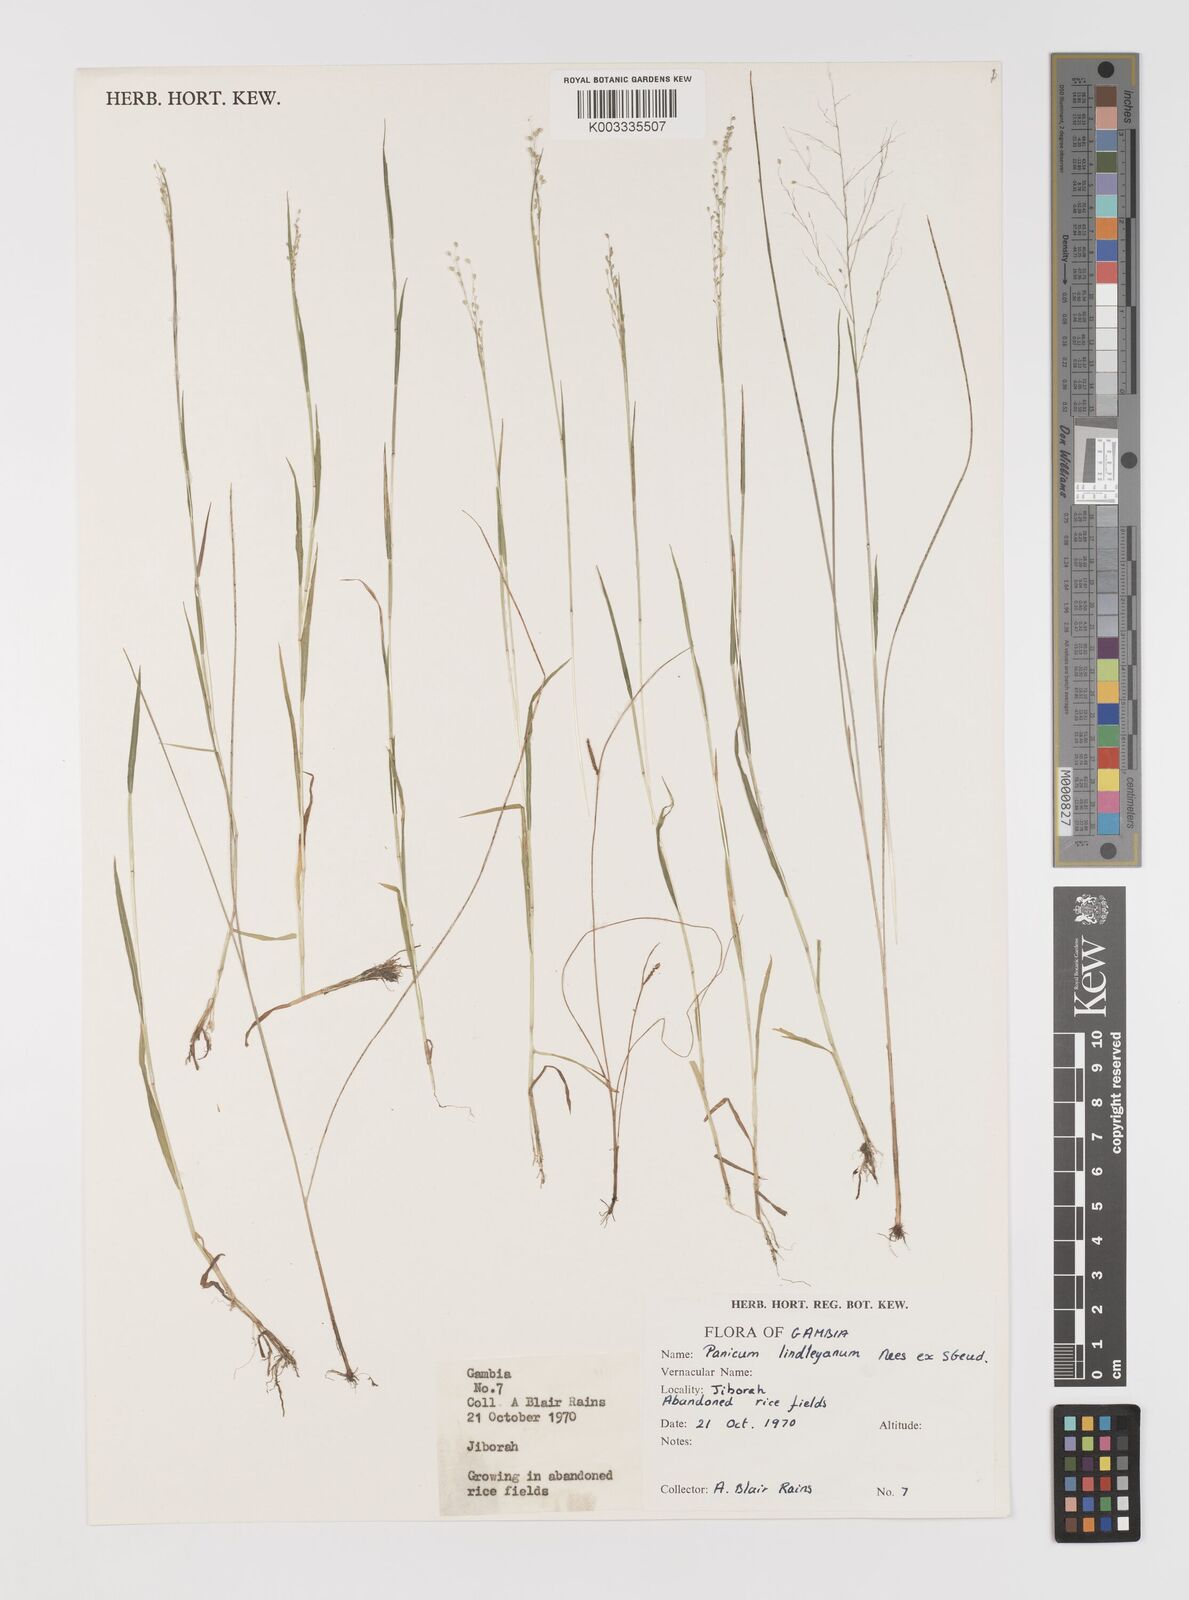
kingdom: Plantae
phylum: Tracheophyta
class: Liliopsida
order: Poales
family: Poaceae
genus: Trichanthecium
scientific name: Trichanthecium tenellum
